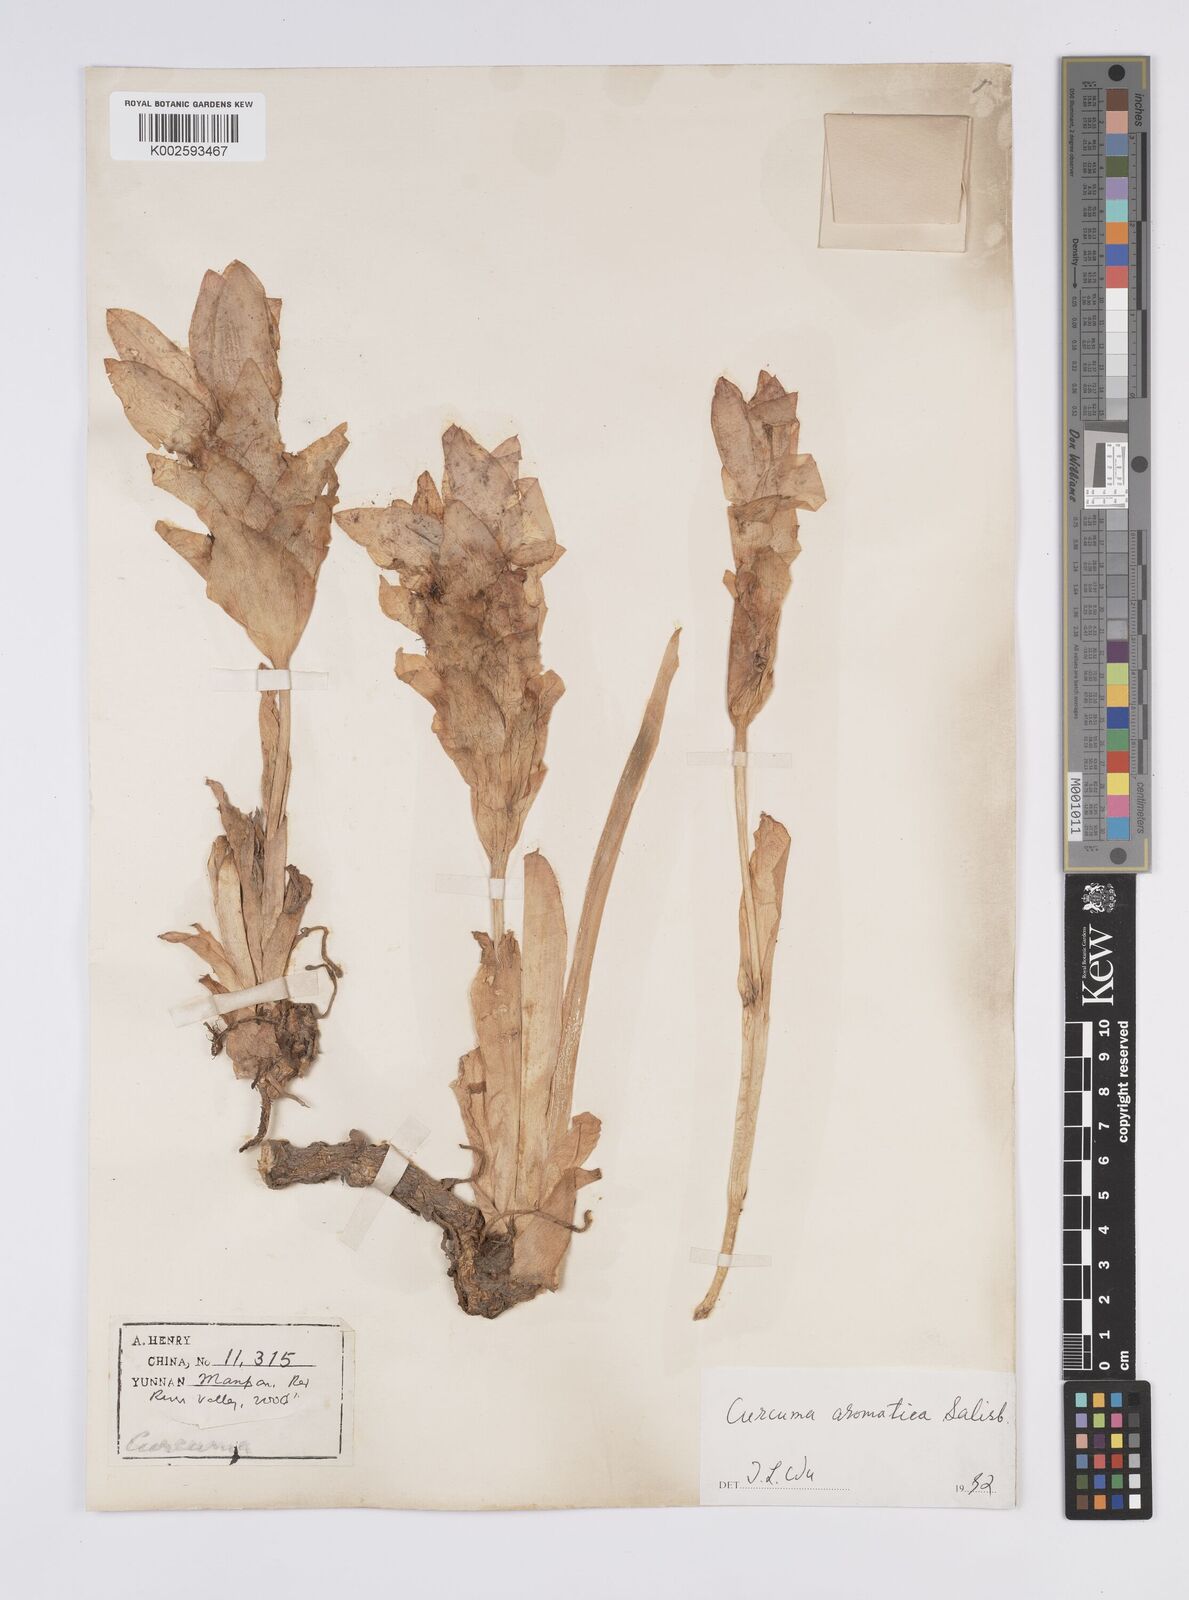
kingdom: Plantae
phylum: Tracheophyta
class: Liliopsida
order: Zingiberales
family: Zingiberaceae
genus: Curcuma
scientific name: Curcuma aromatica
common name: Wild turmeric
